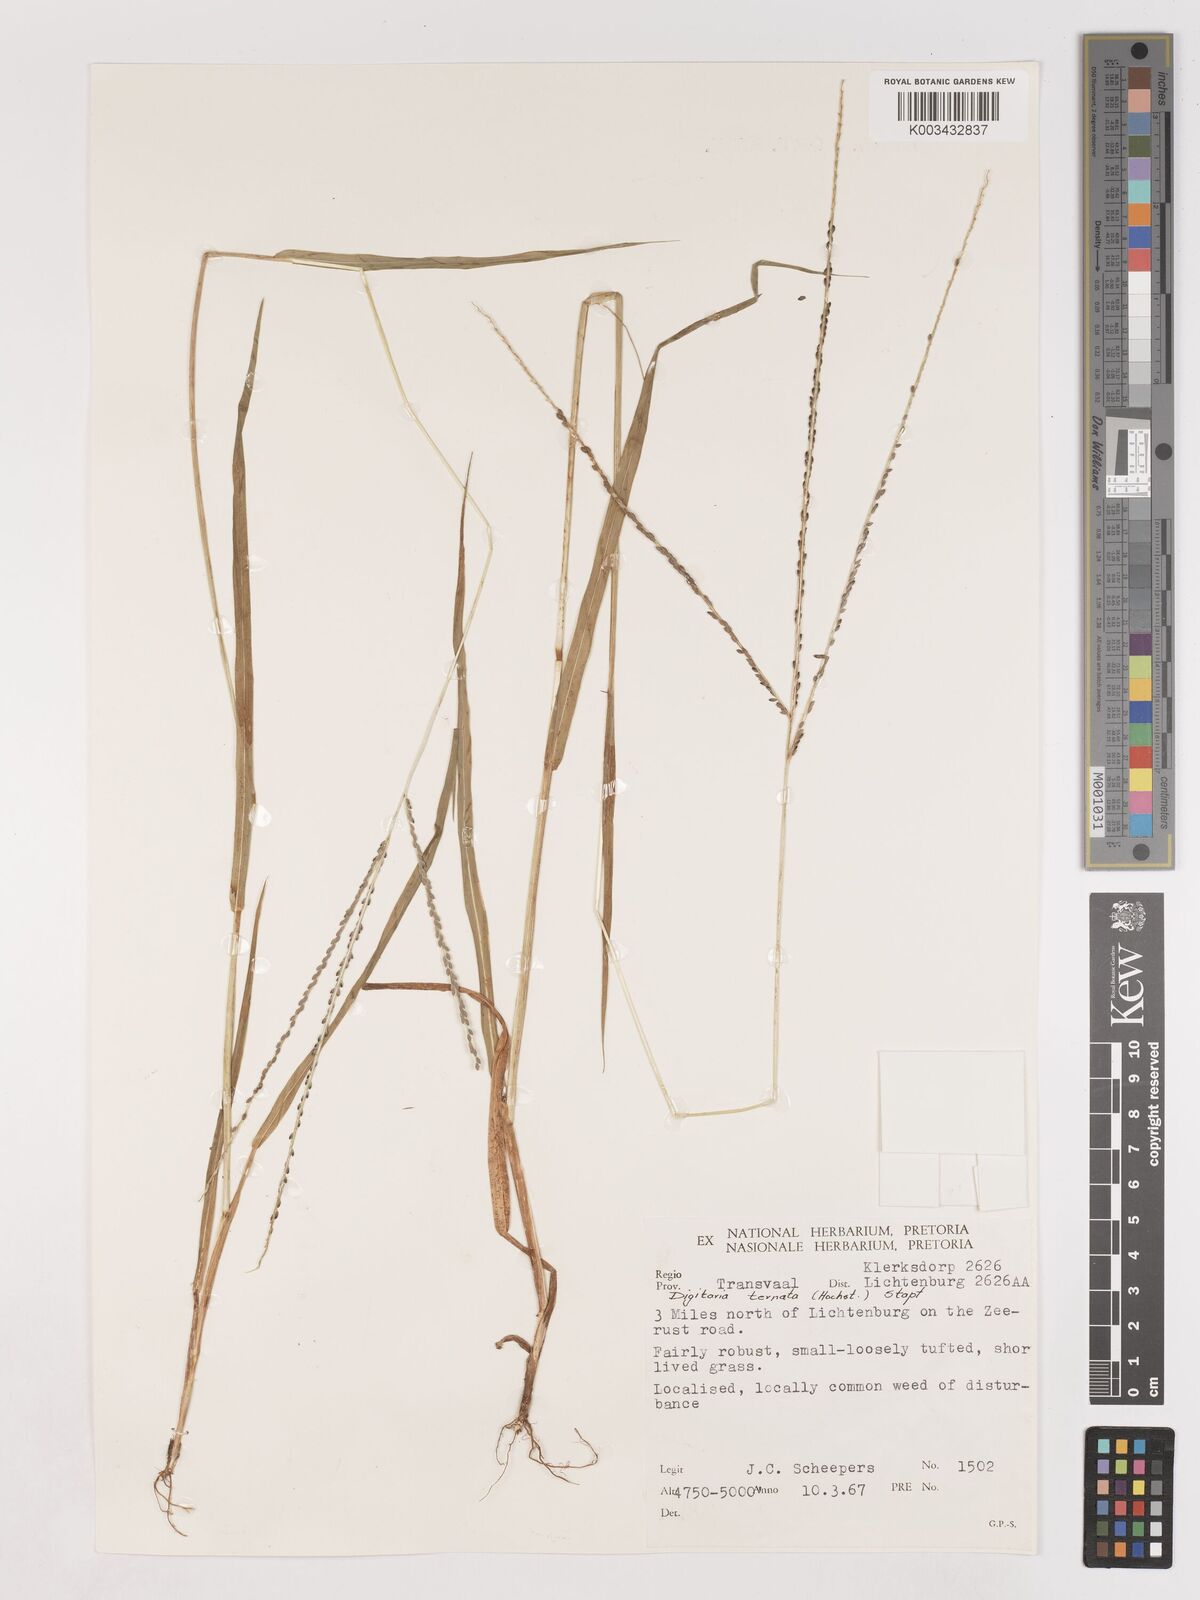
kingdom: Plantae
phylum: Tracheophyta
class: Liliopsida
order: Poales
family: Poaceae
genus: Digitaria
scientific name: Digitaria ternata
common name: Blackseed crabgrass
